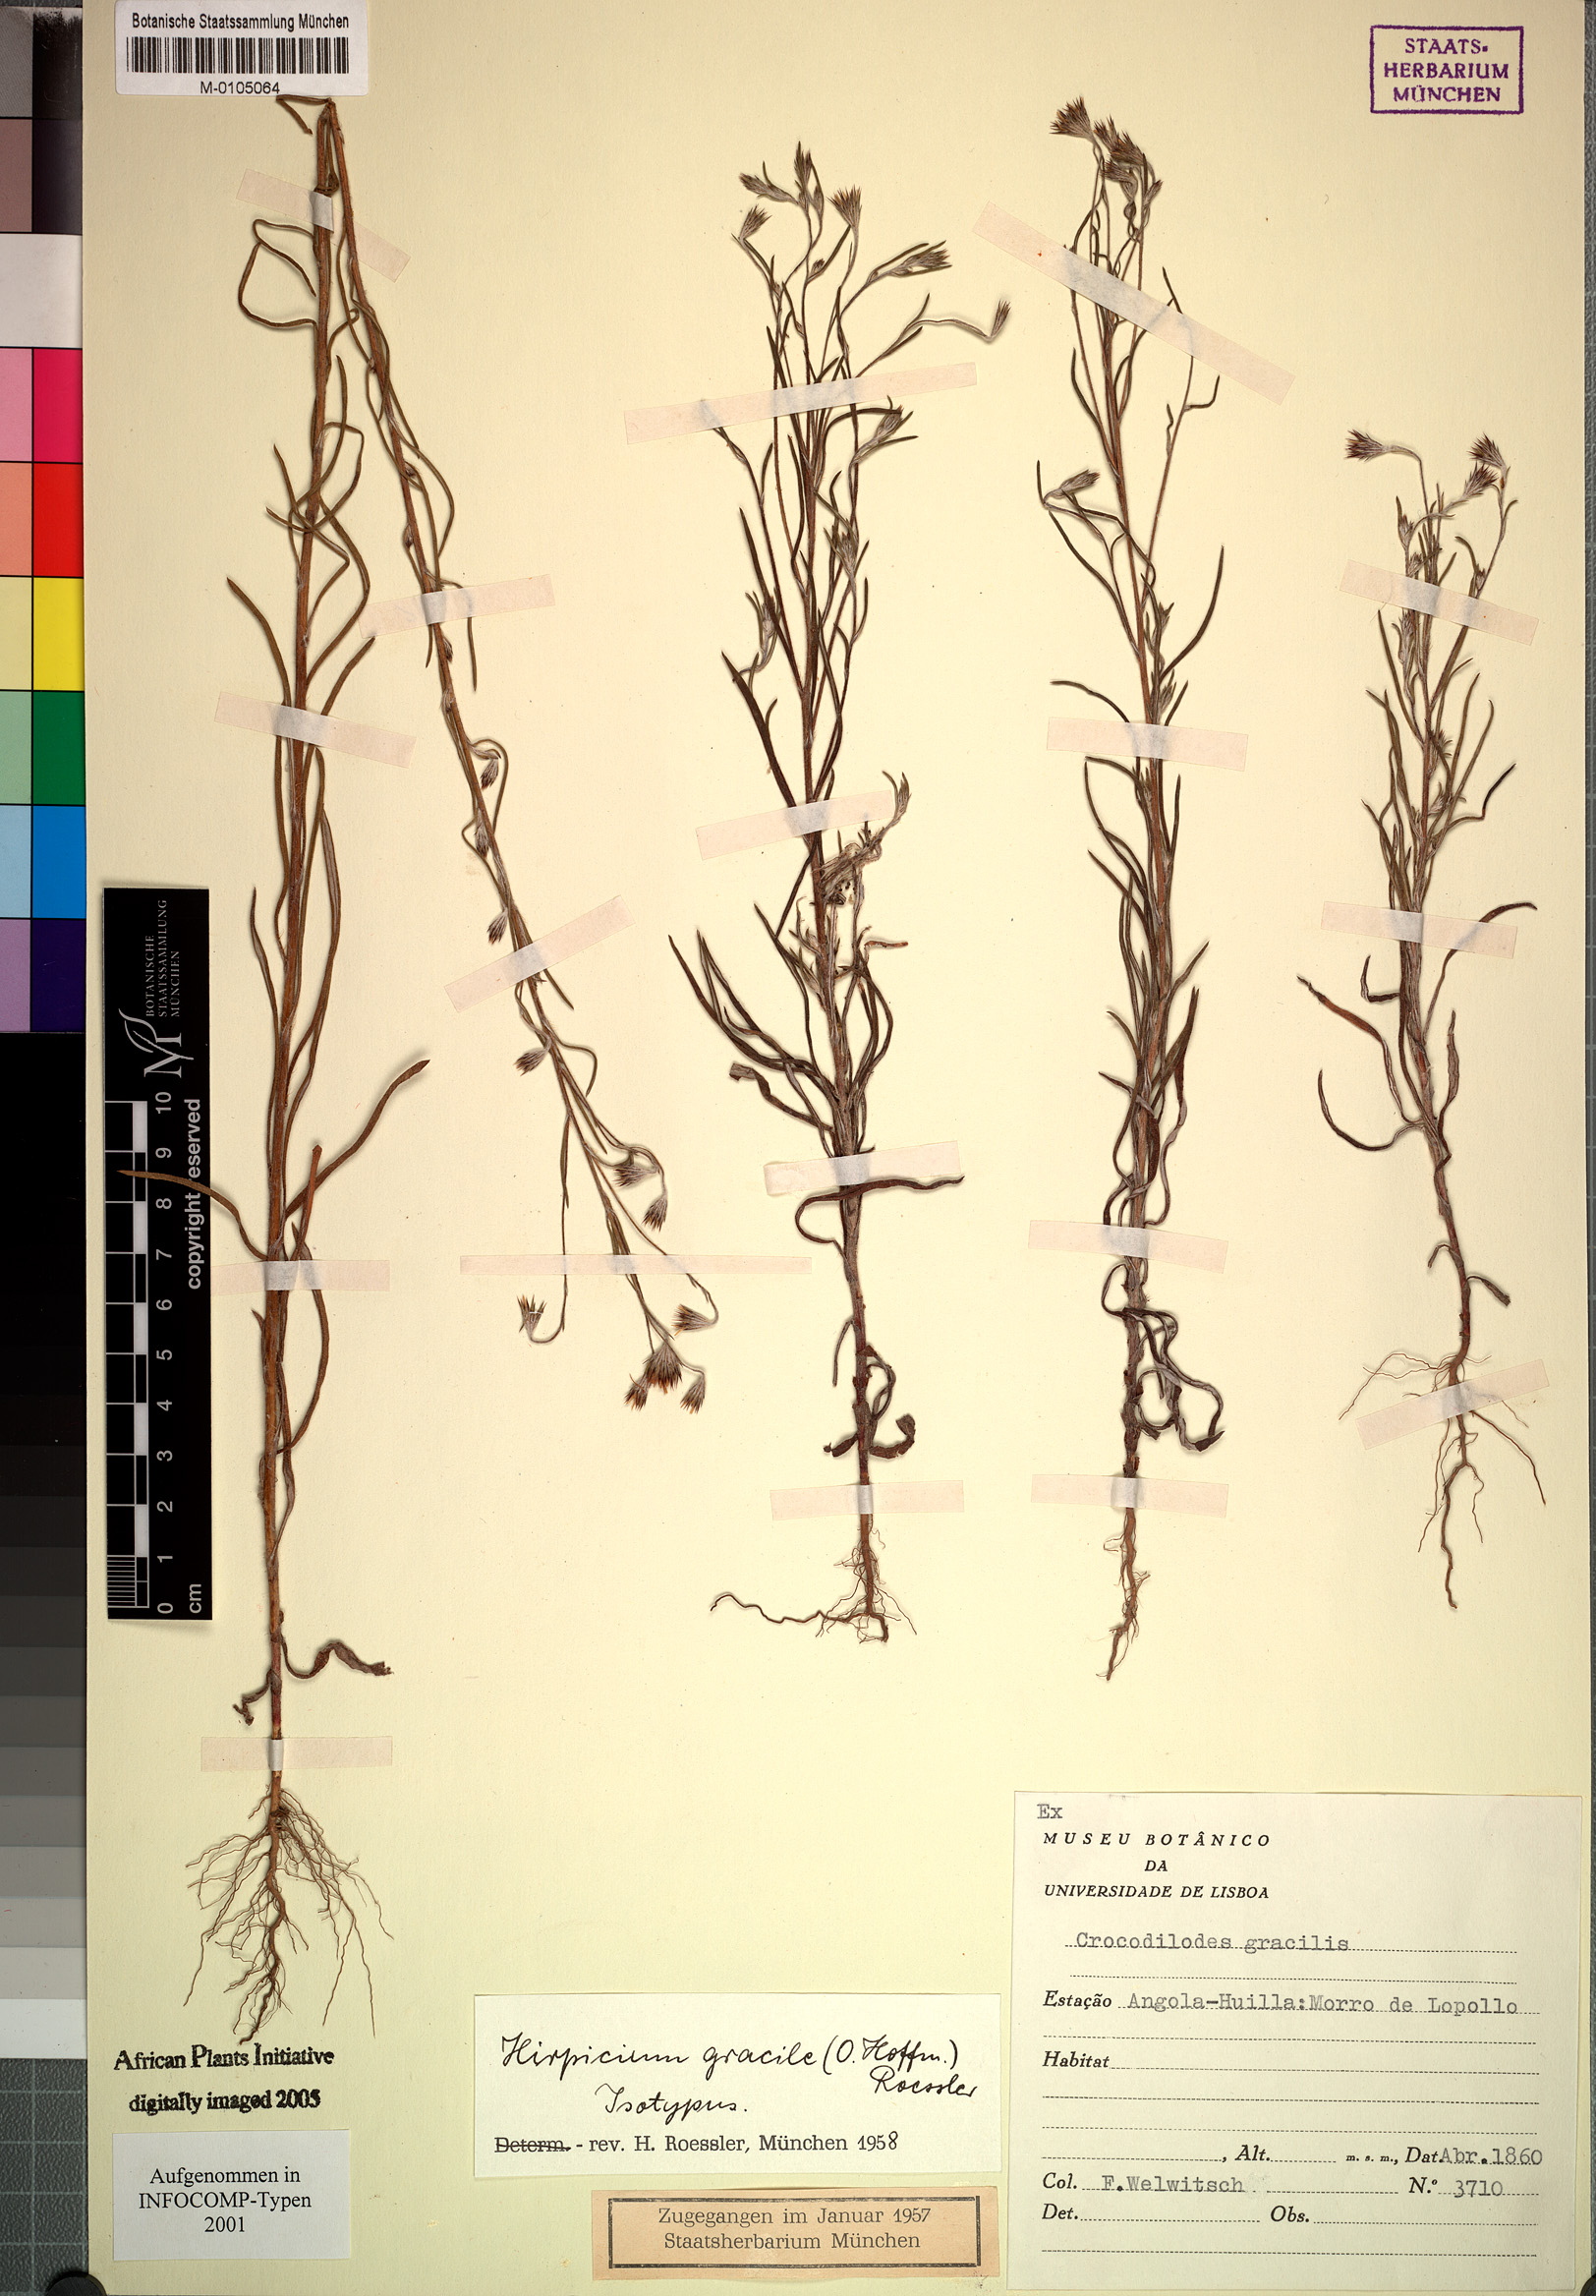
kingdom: Plantae
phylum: Tracheophyta
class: Magnoliopsida
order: Asterales
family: Asteraceae
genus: Gorteria
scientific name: Gorteria gracilis
